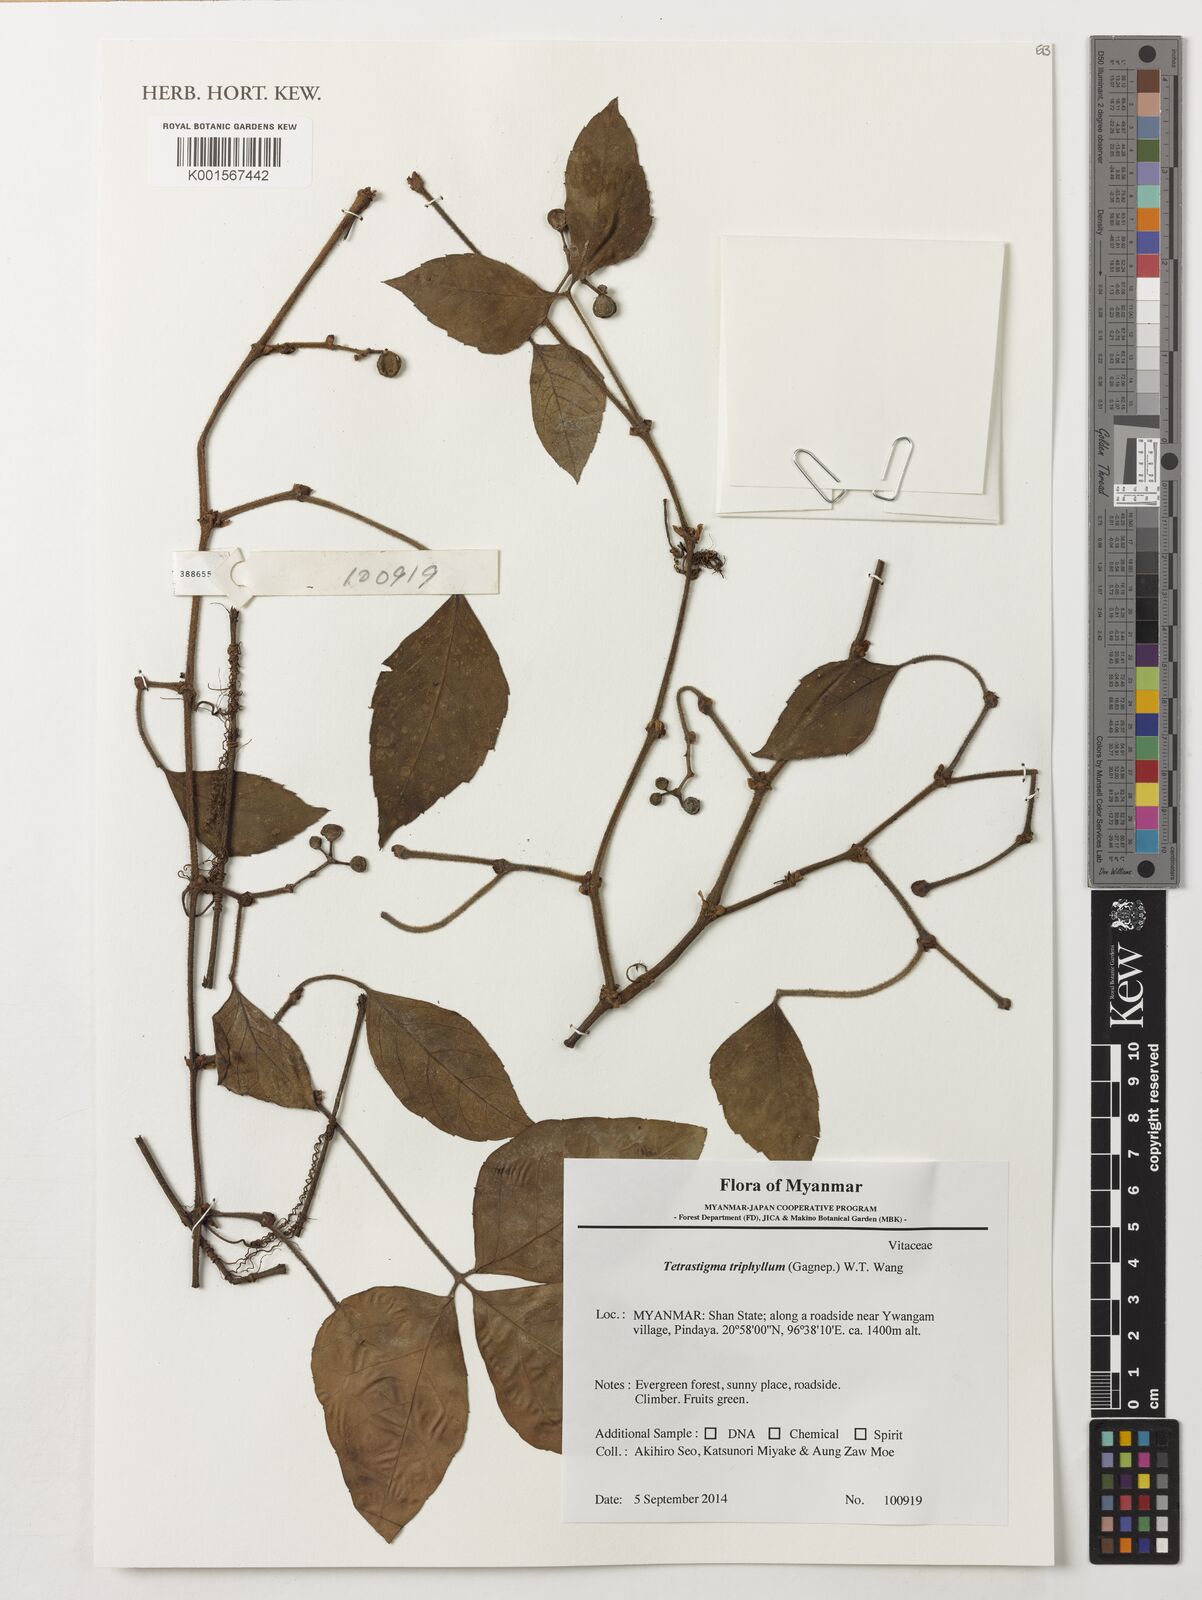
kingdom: Plantae
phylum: Tracheophyta
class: Magnoliopsida
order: Vitales
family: Vitaceae
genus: Tetrastigma
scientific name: Tetrastigma triphyllum
